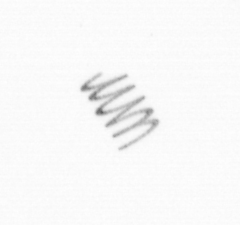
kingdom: Chromista
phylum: Ochrophyta
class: Bacillariophyceae
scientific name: Bacillariophyceae
